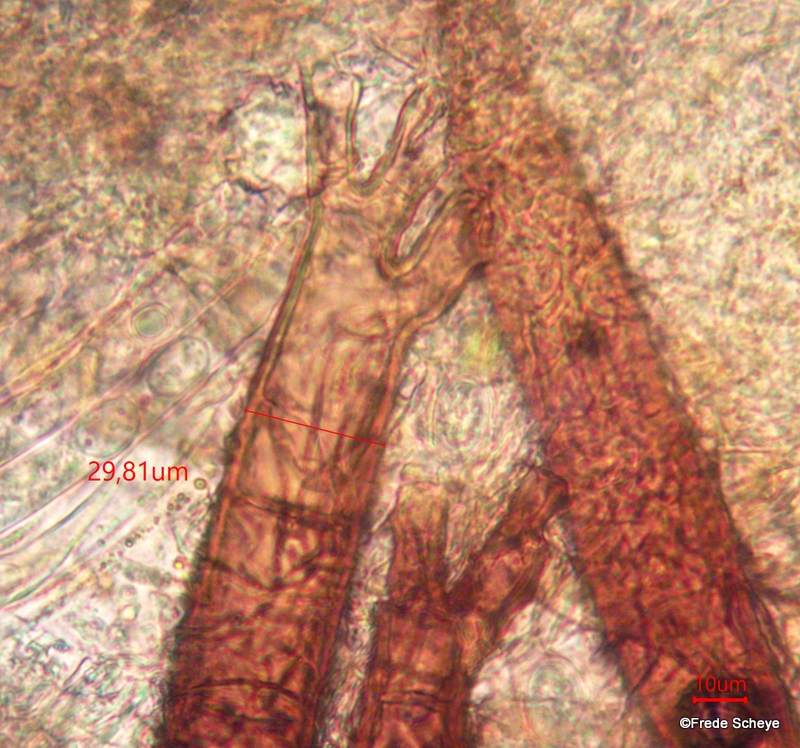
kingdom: Fungi
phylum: Ascomycota
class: Pezizomycetes
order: Pezizales
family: Pyronemataceae
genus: Scutellinia
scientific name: Scutellinia
